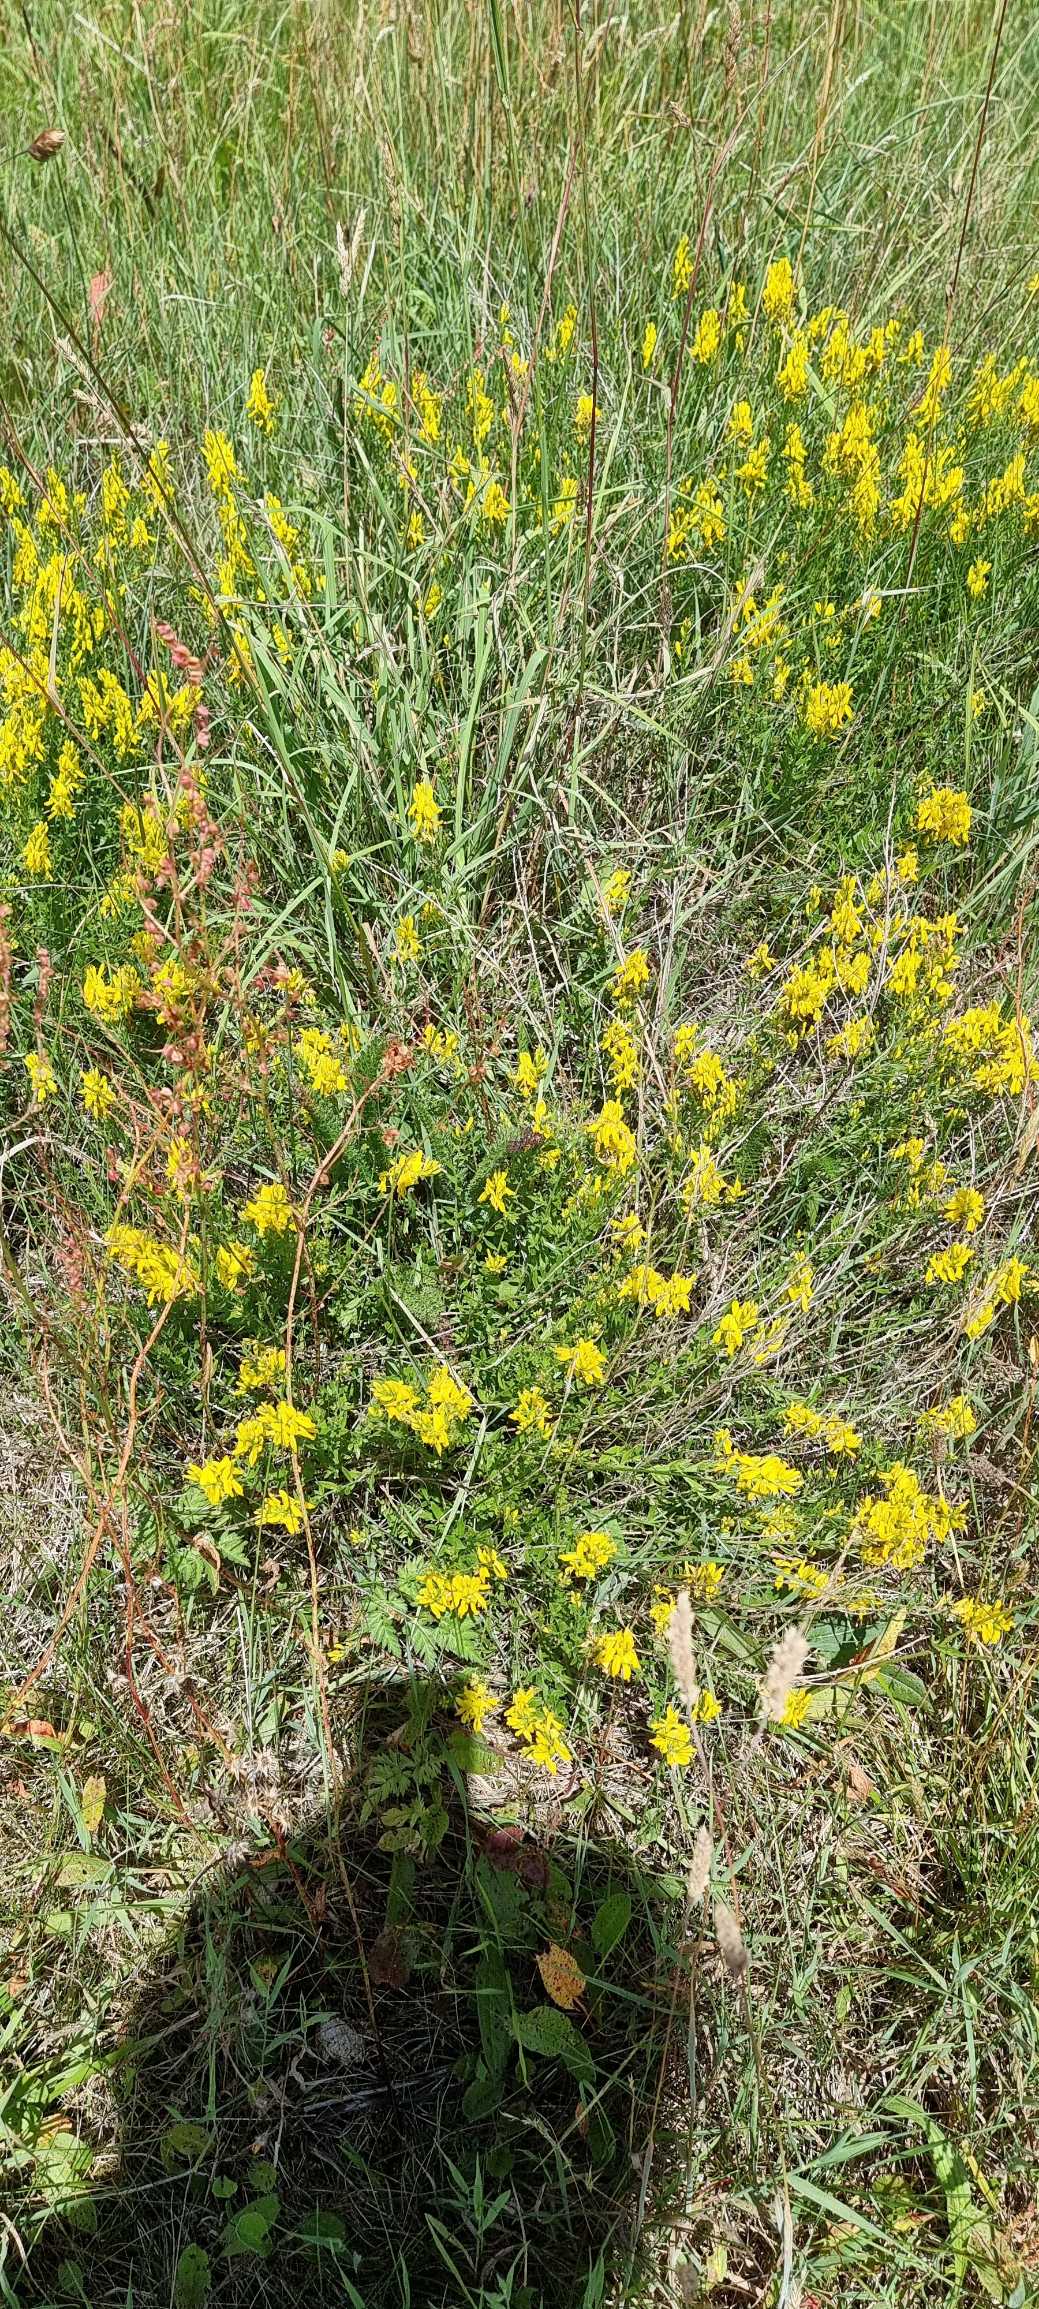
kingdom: Plantae
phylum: Tracheophyta
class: Magnoliopsida
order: Fabales
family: Fabaceae
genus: Genista
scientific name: Genista tinctoria
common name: Farve-visse
